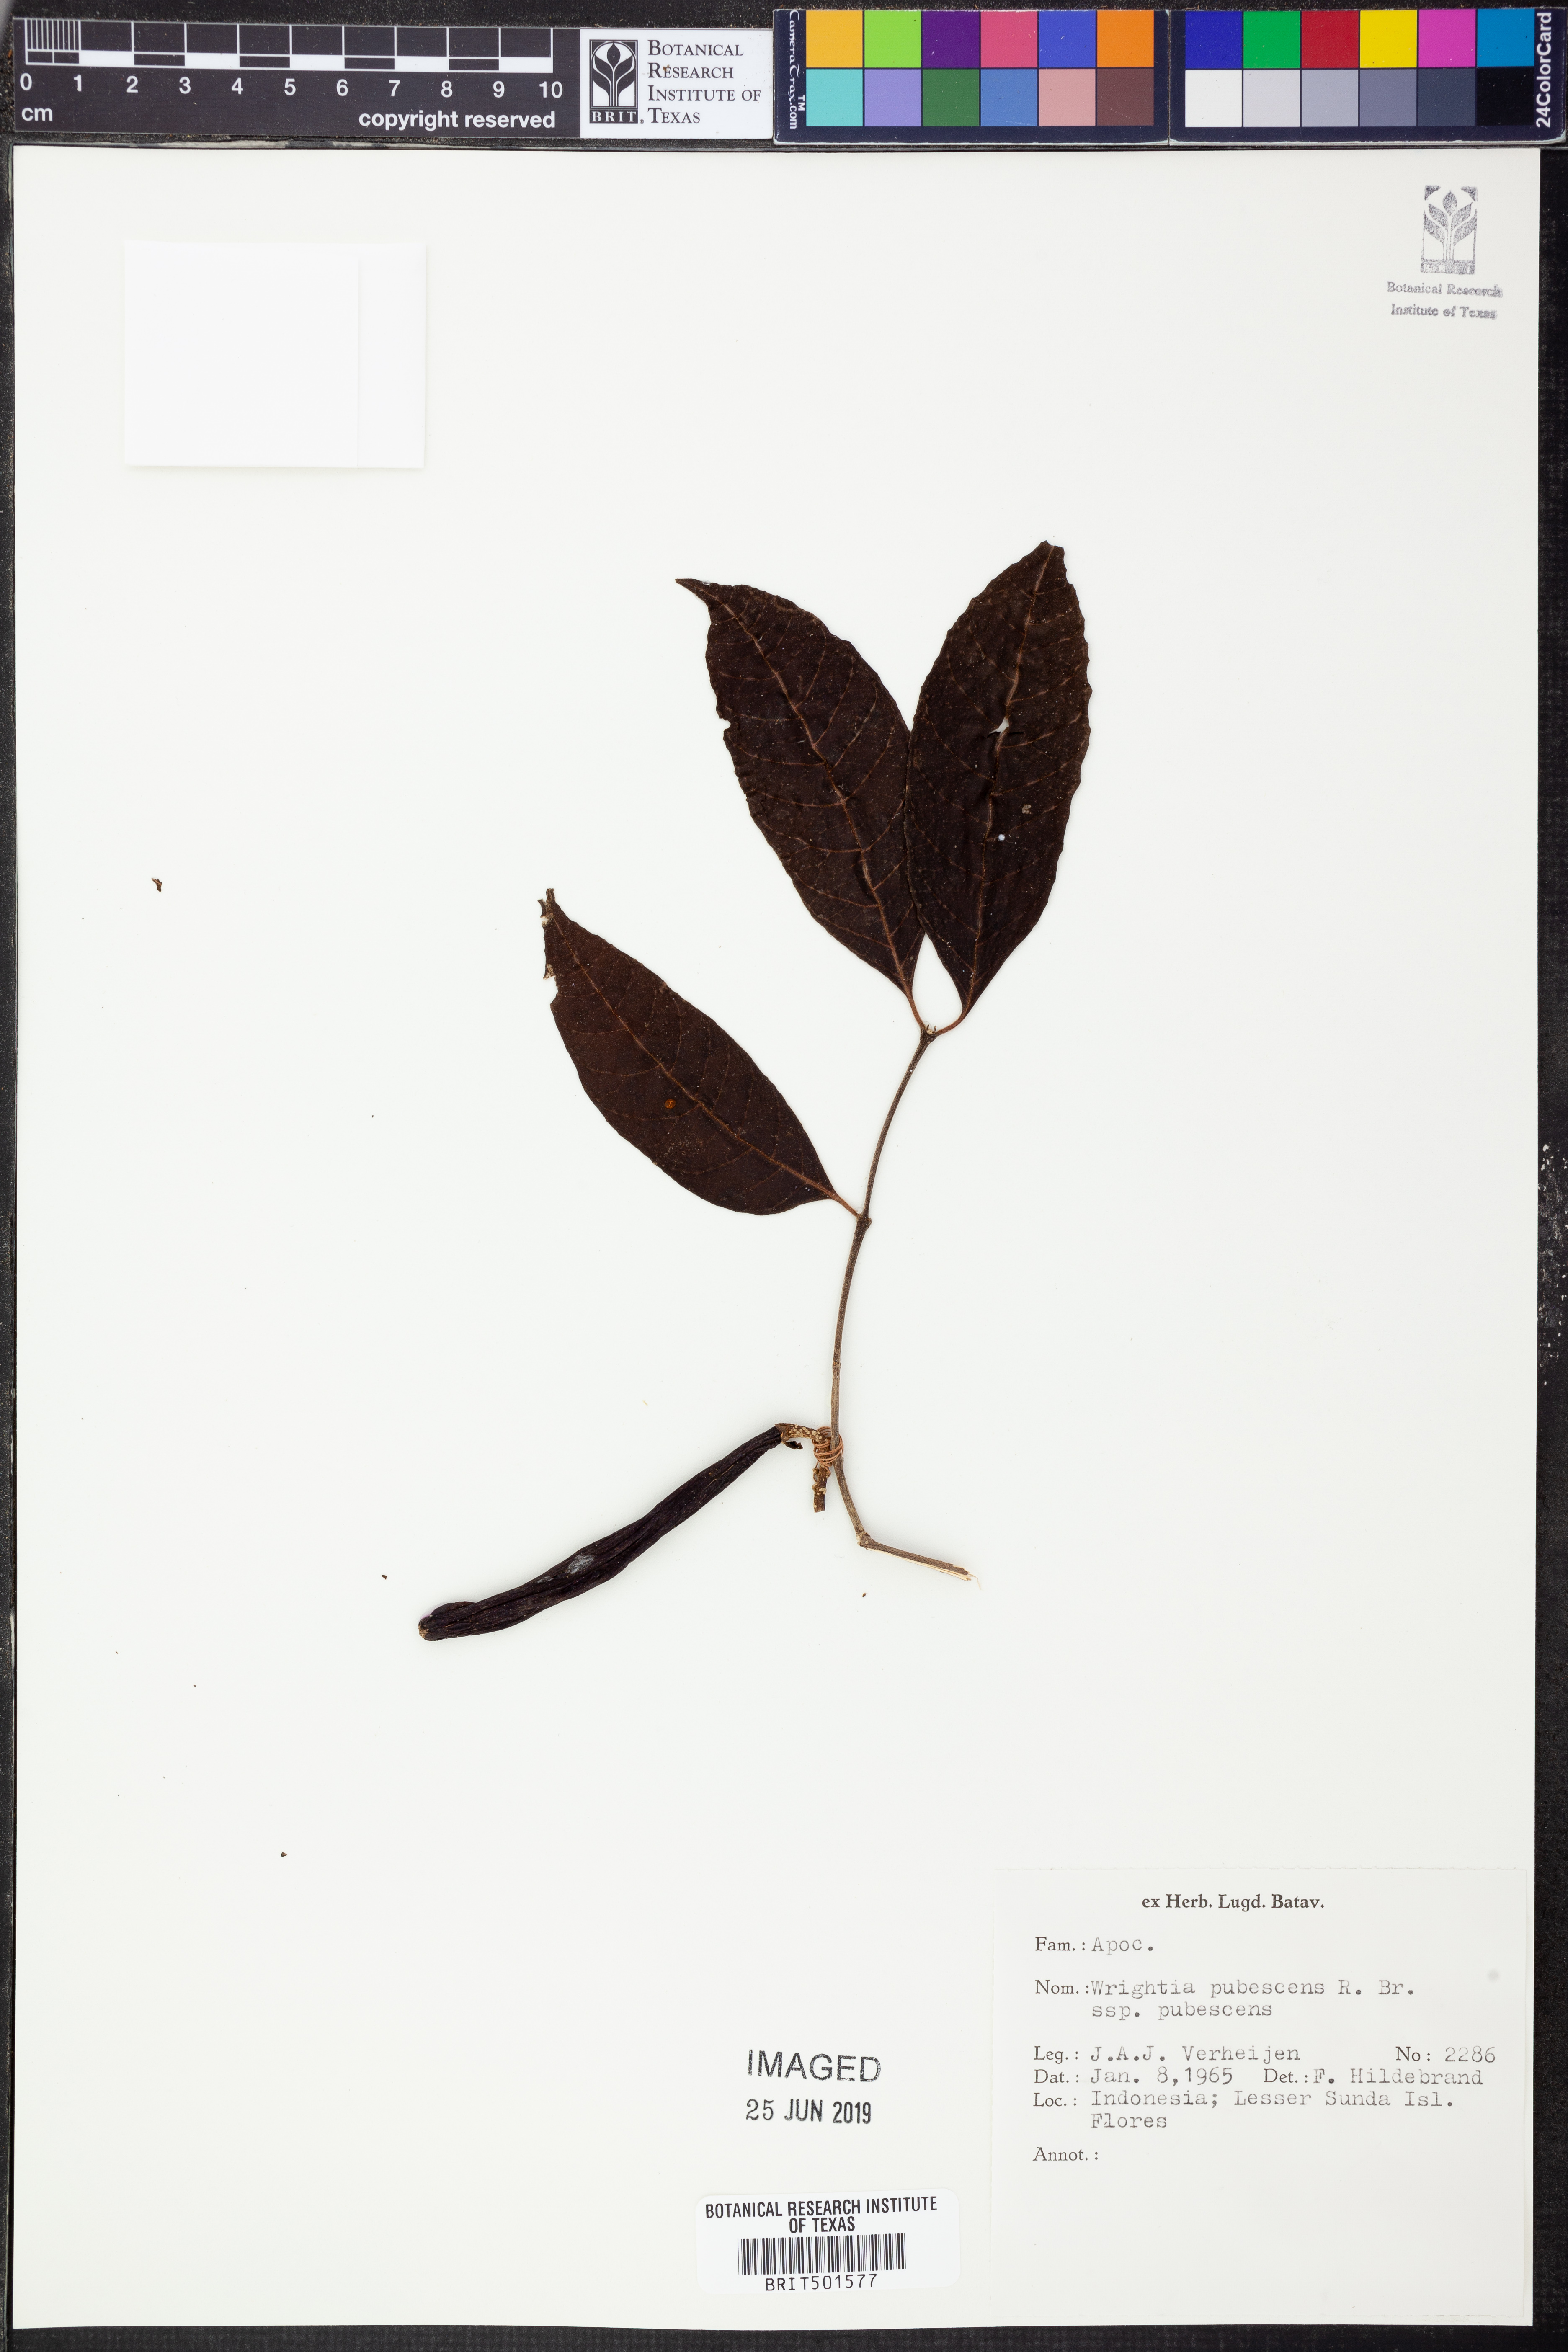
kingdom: Plantae
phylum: Tracheophyta
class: Magnoliopsida
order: Gentianales
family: Apocynaceae
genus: Wrightia
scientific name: Wrightia pubescens
